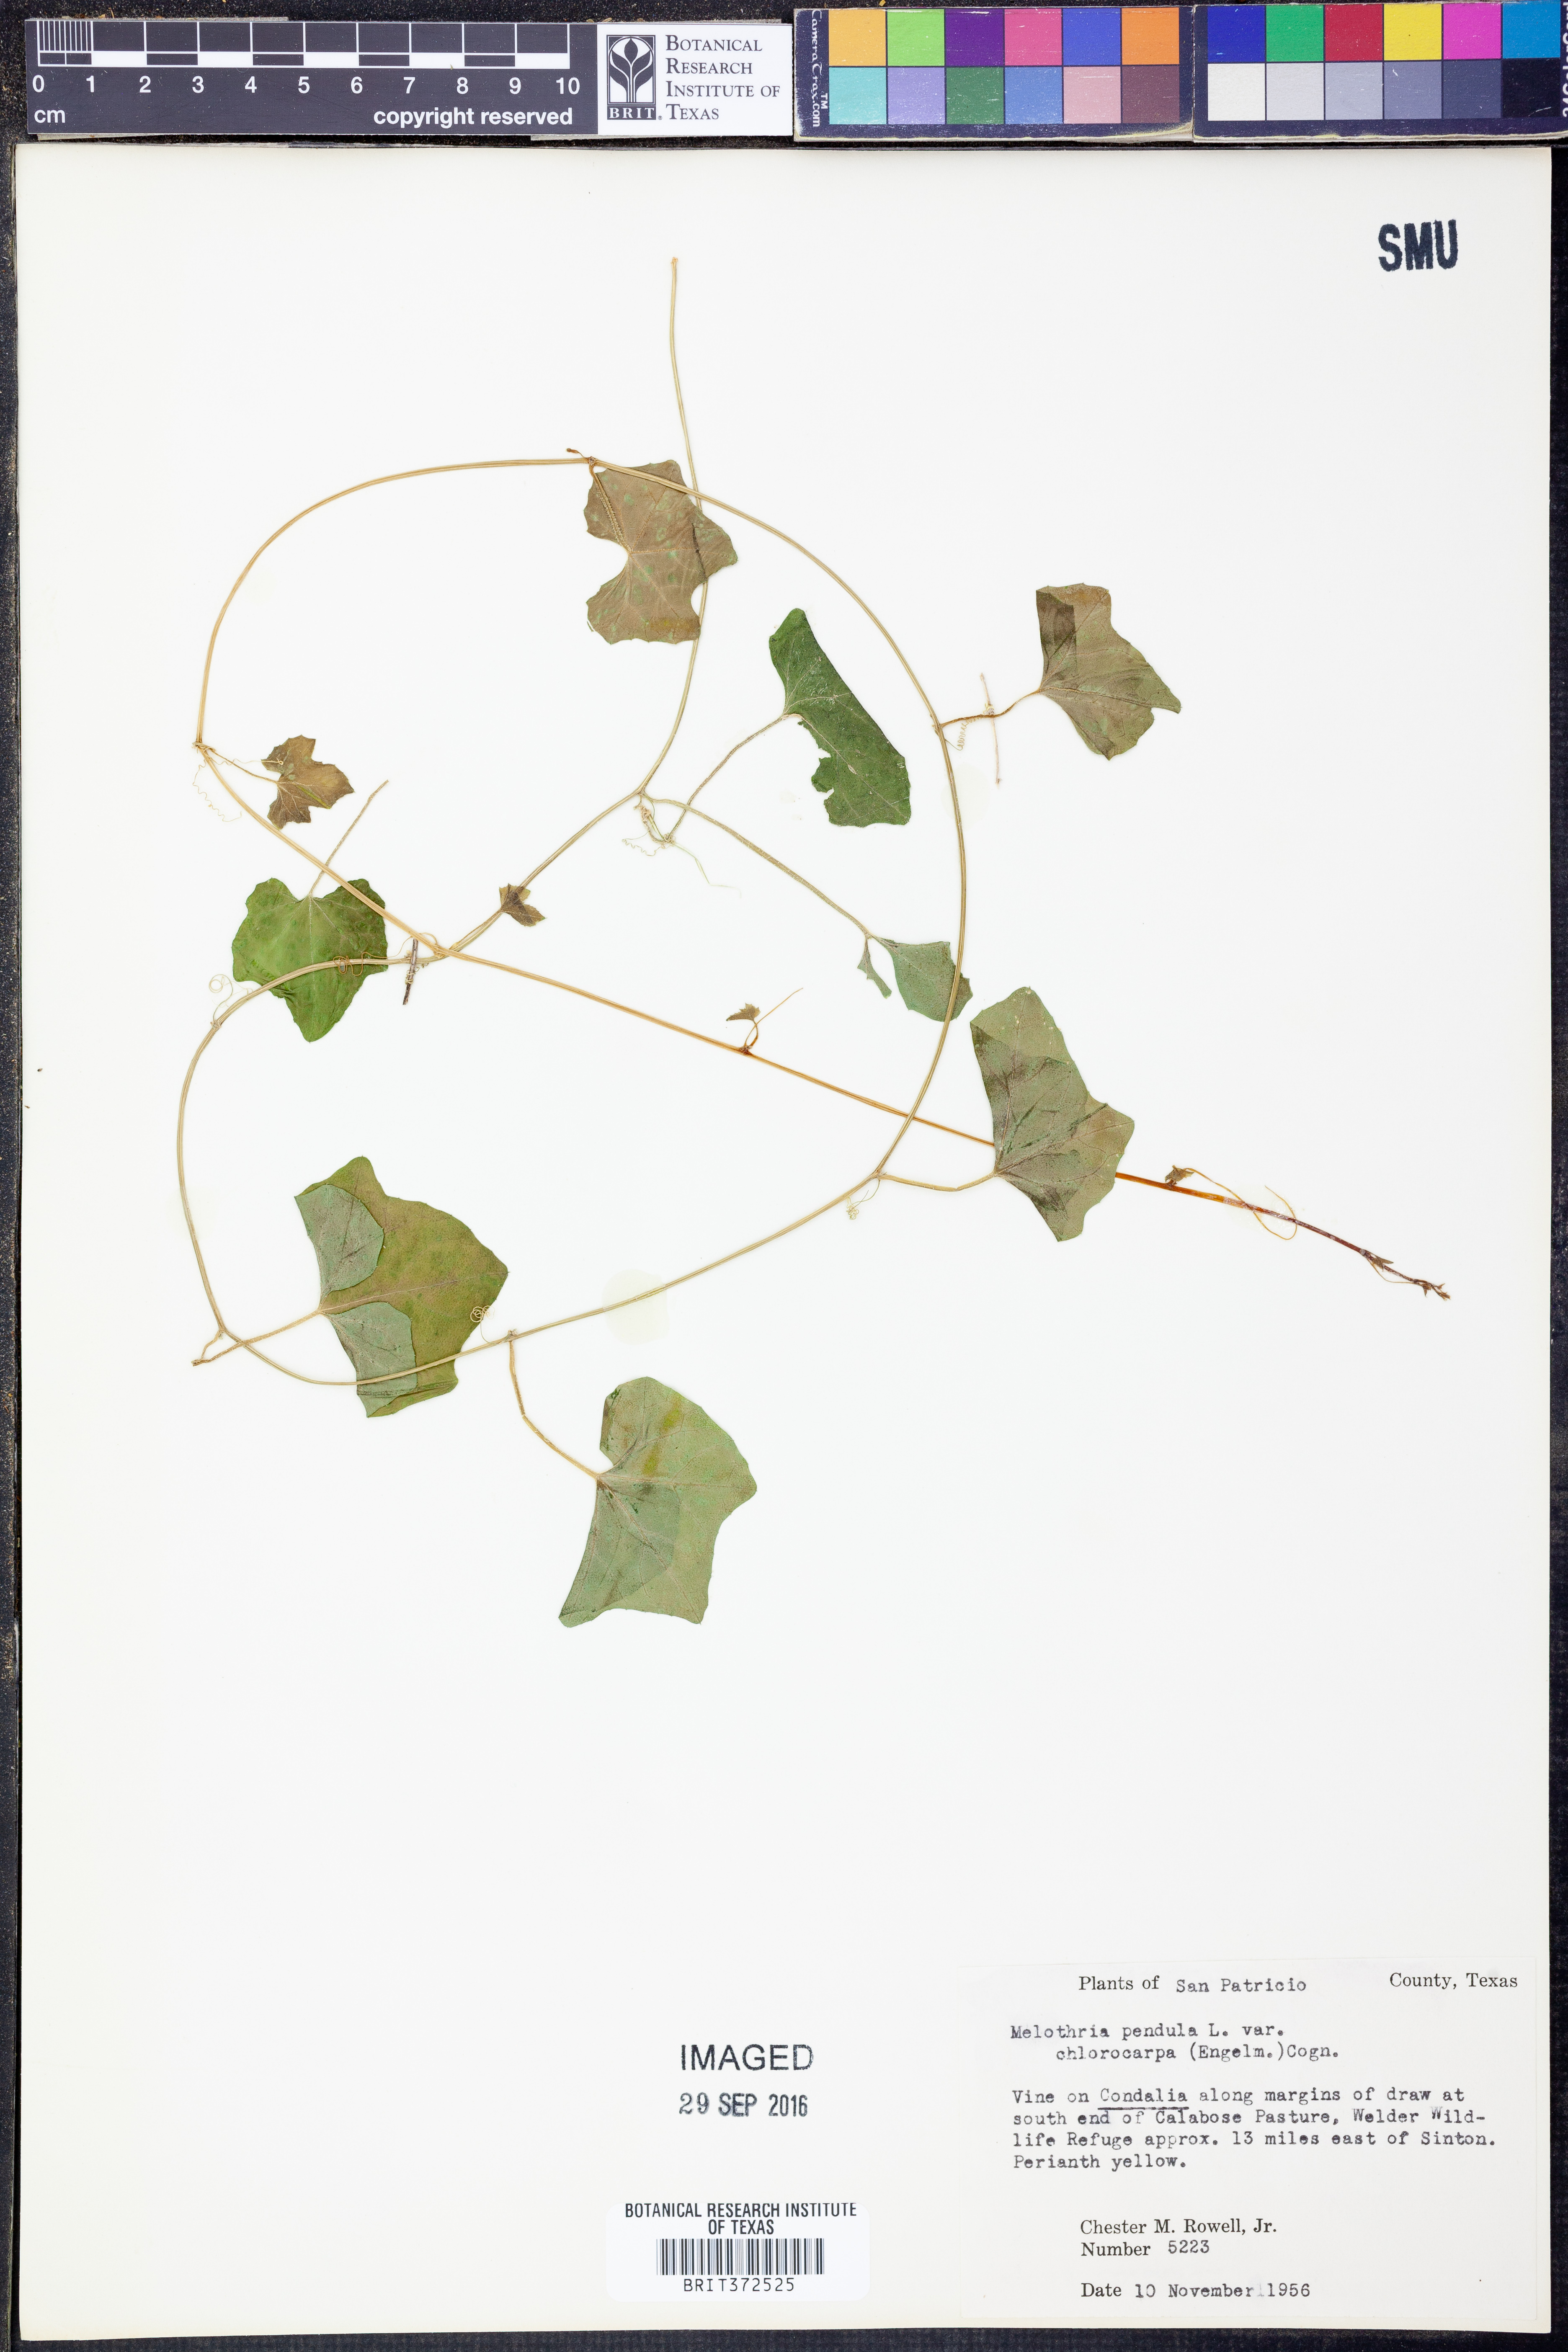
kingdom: Plantae
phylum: Tracheophyta
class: Magnoliopsida
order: Cucurbitales
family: Cucurbitaceae
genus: Melothria
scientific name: Melothria pendula
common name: Creeping-cucumber
